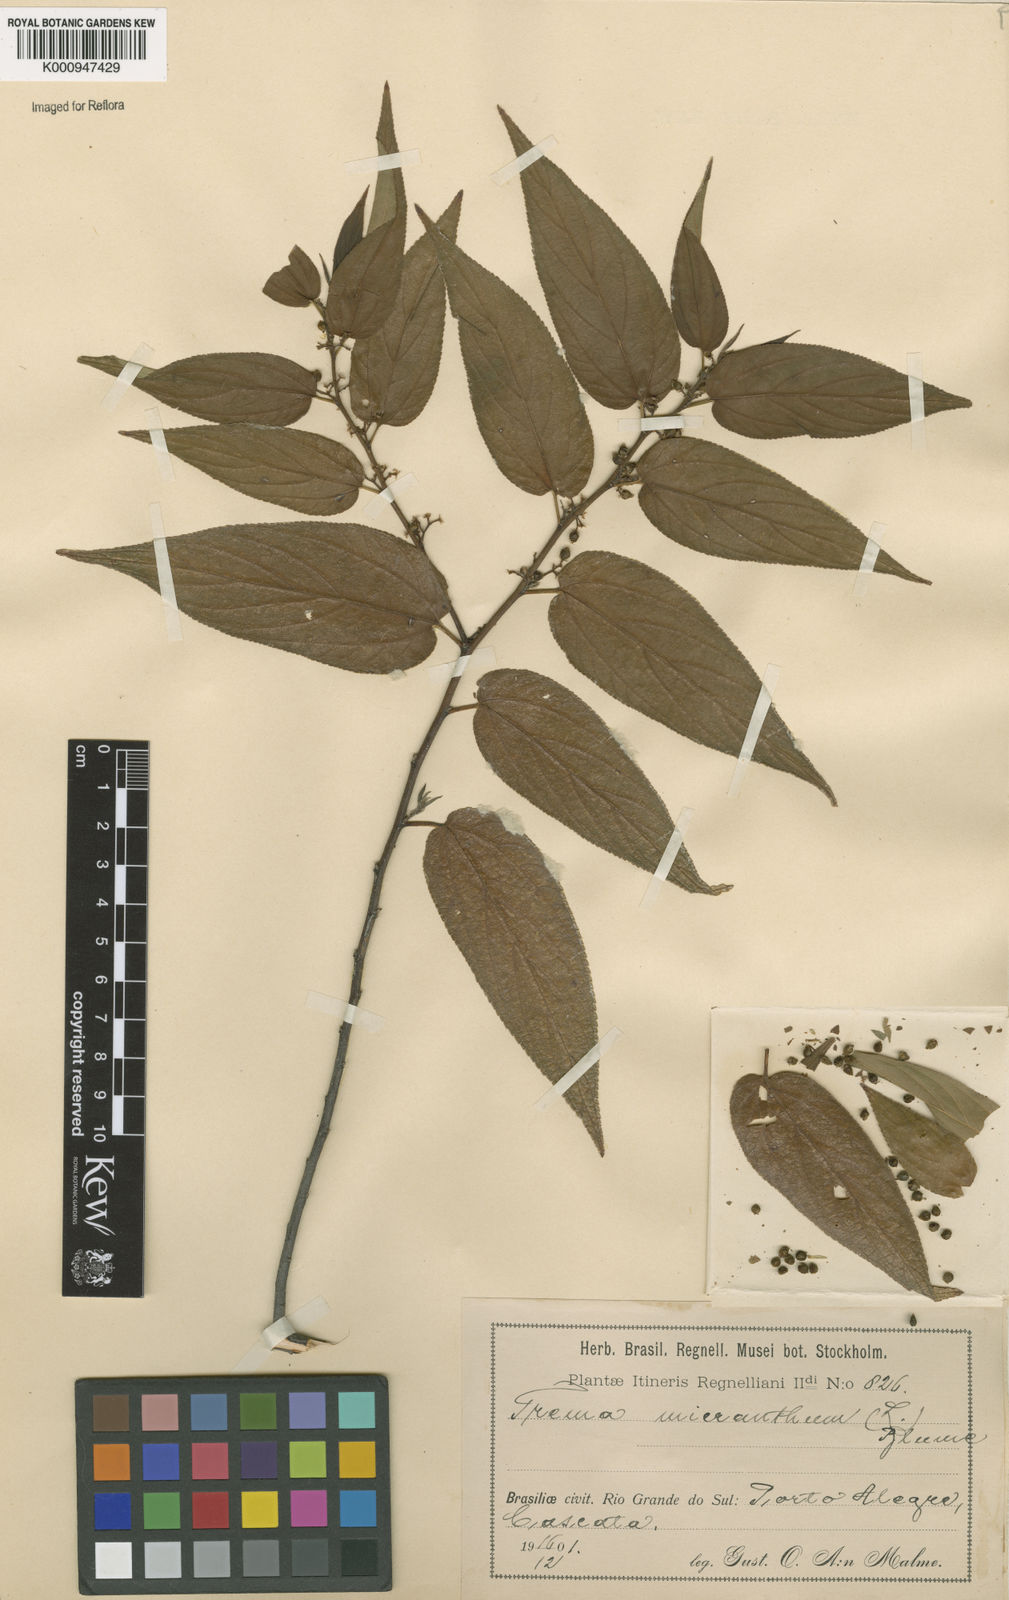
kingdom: Plantae
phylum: Tracheophyta
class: Magnoliopsida
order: Rosales
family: Cannabaceae
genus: Trema
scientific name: Trema micranthum
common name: Jamaican nettletree
